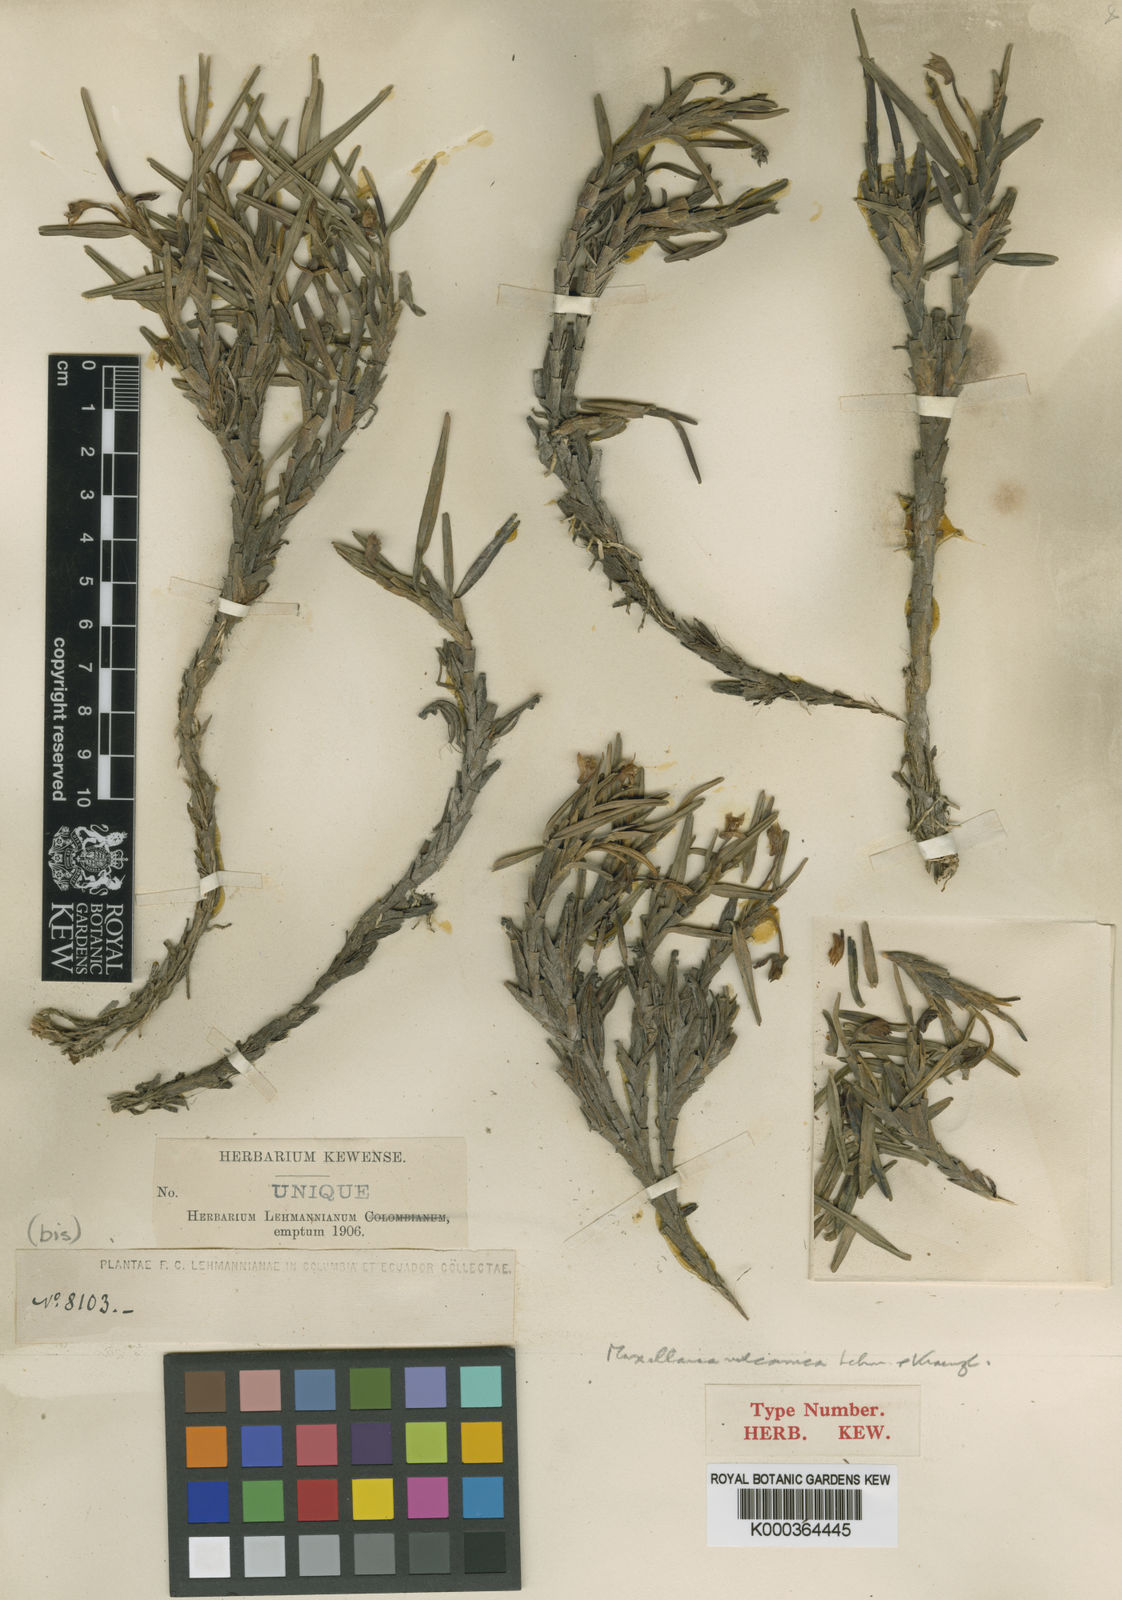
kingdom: Plantae
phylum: Tracheophyta
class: Liliopsida
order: Asparagales
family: Orchidaceae
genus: Maxillaria
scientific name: Maxillaria vulcanica
